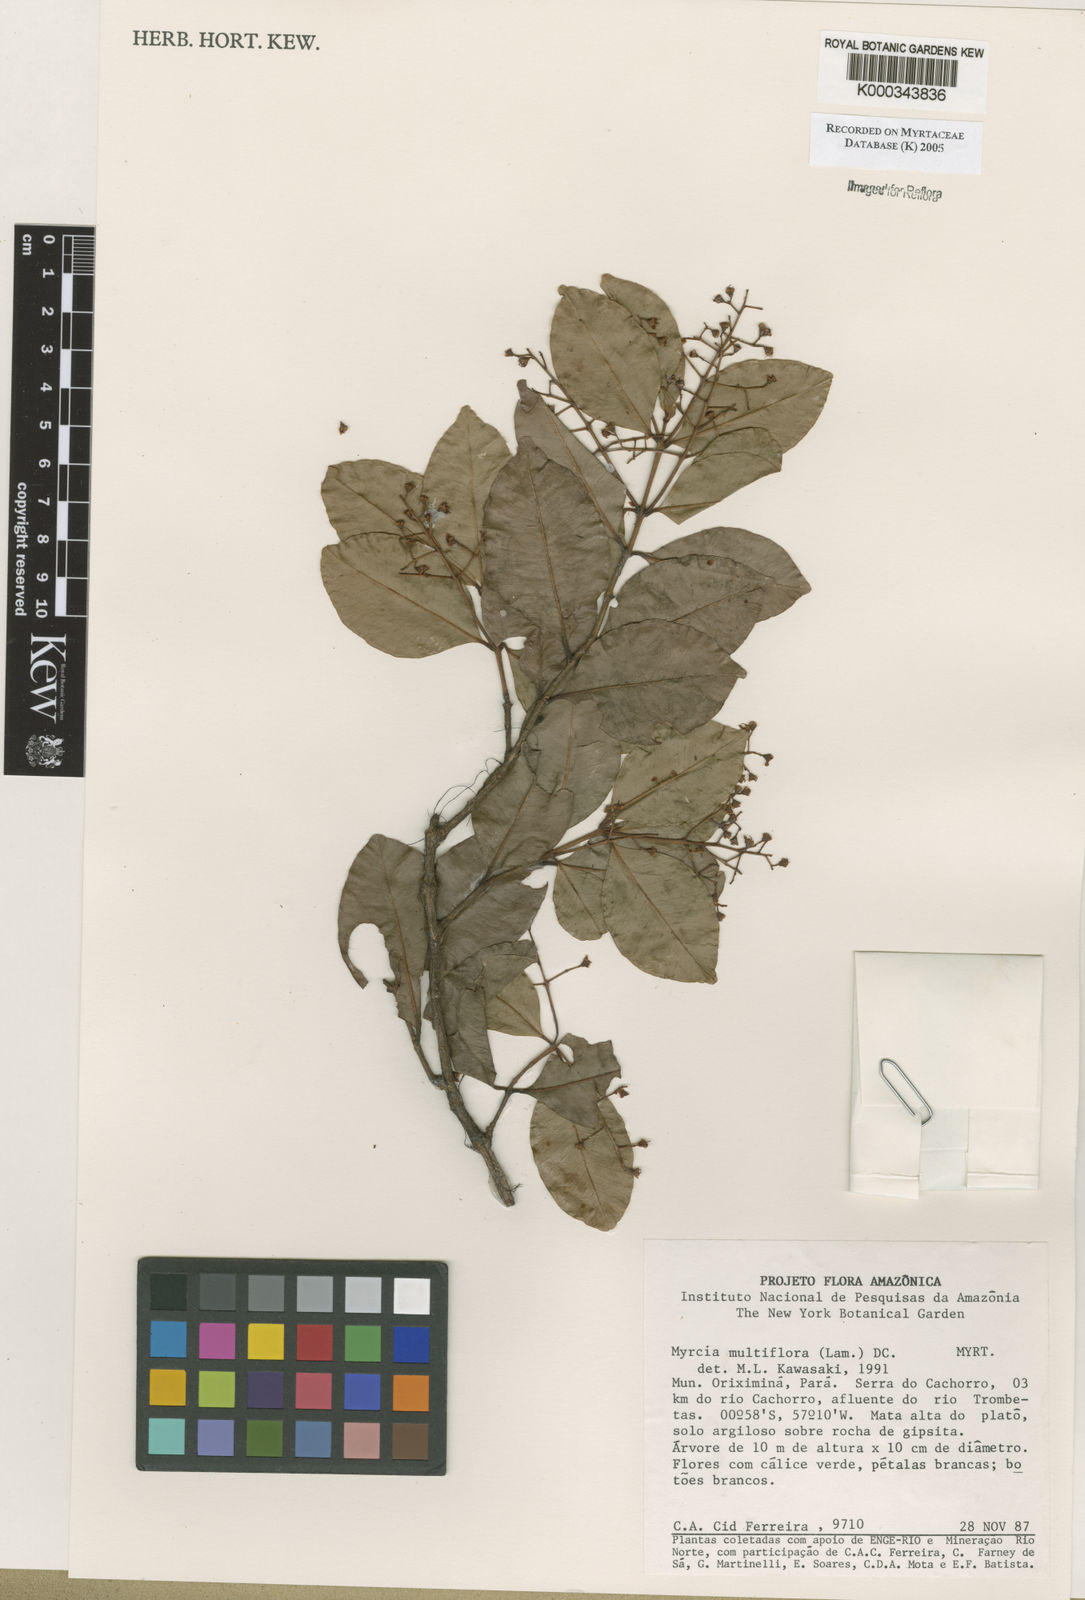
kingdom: Plantae
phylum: Tracheophyta
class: Magnoliopsida
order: Myrtales
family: Myrtaceae
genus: Myrcia
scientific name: Myrcia multiflora
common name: Pedra hume
